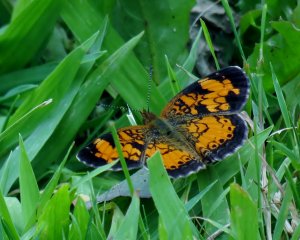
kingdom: Animalia
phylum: Arthropoda
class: Insecta
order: Lepidoptera
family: Nymphalidae
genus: Phyciodes
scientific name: Phyciodes tharos
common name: Pearl Crescent
